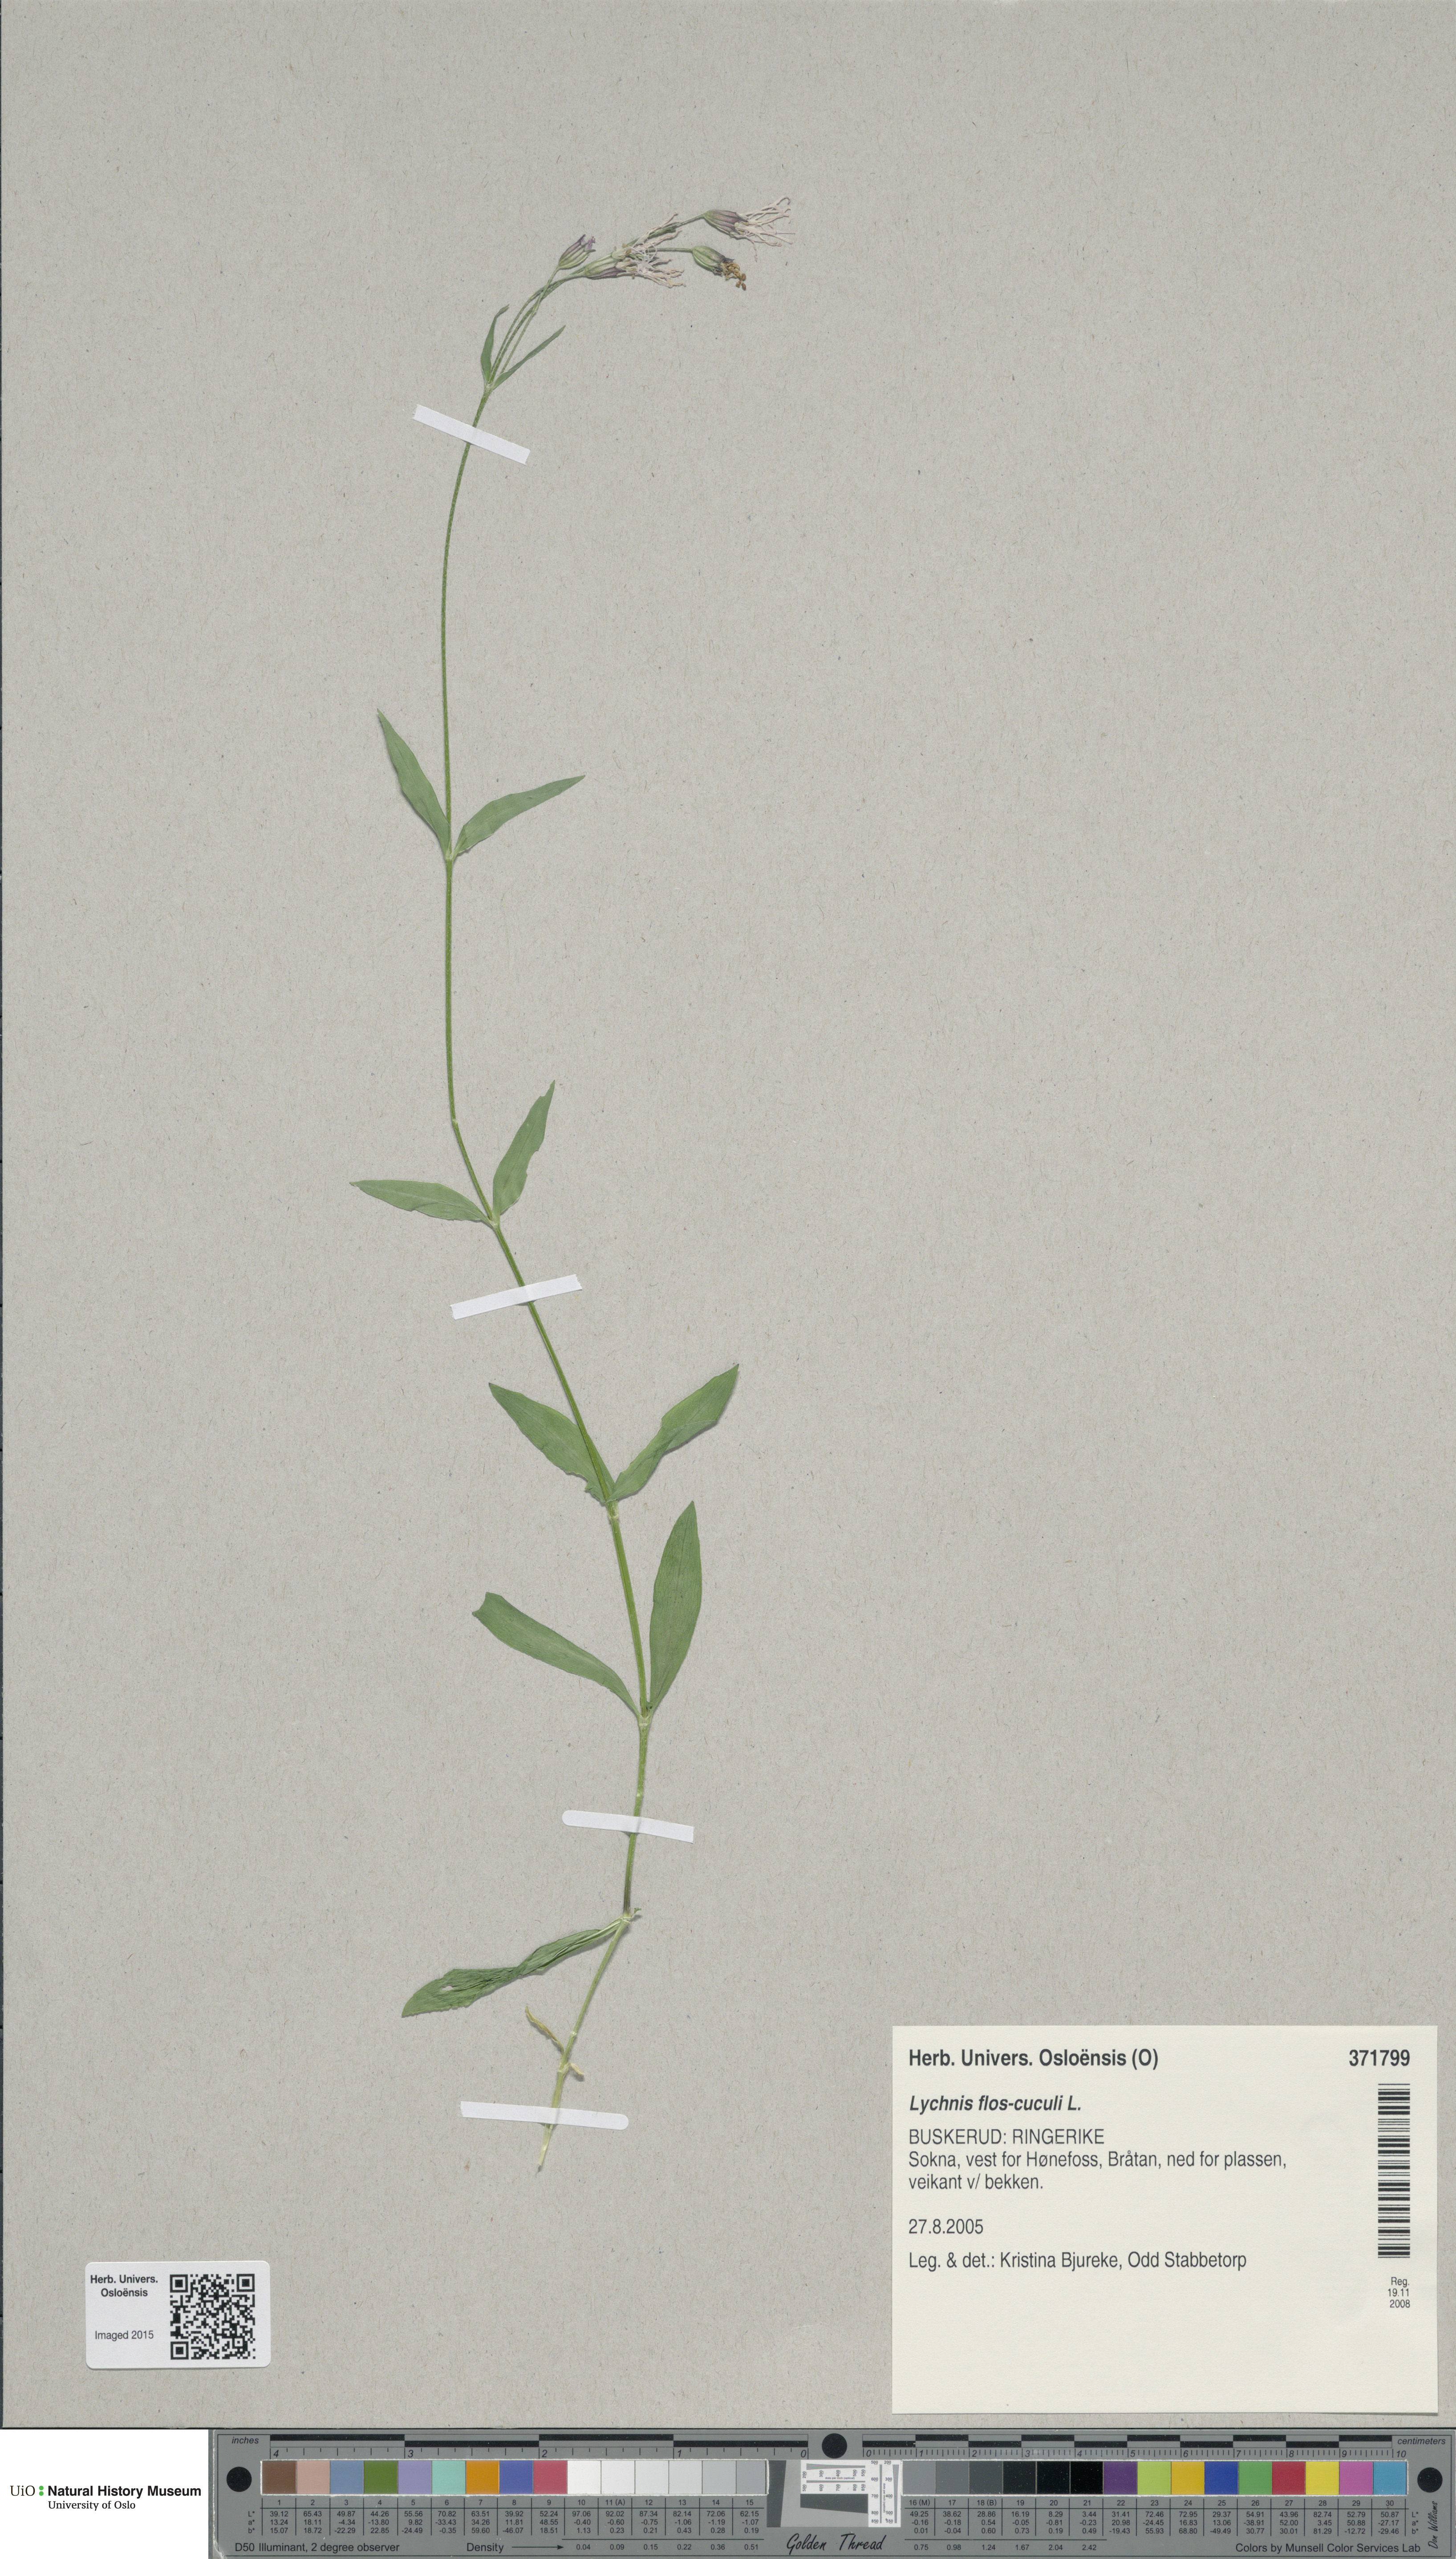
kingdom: Plantae
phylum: Tracheophyta
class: Magnoliopsida
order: Caryophyllales
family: Caryophyllaceae
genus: Silene
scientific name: Silene flos-cuculi
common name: Ragged-robin
